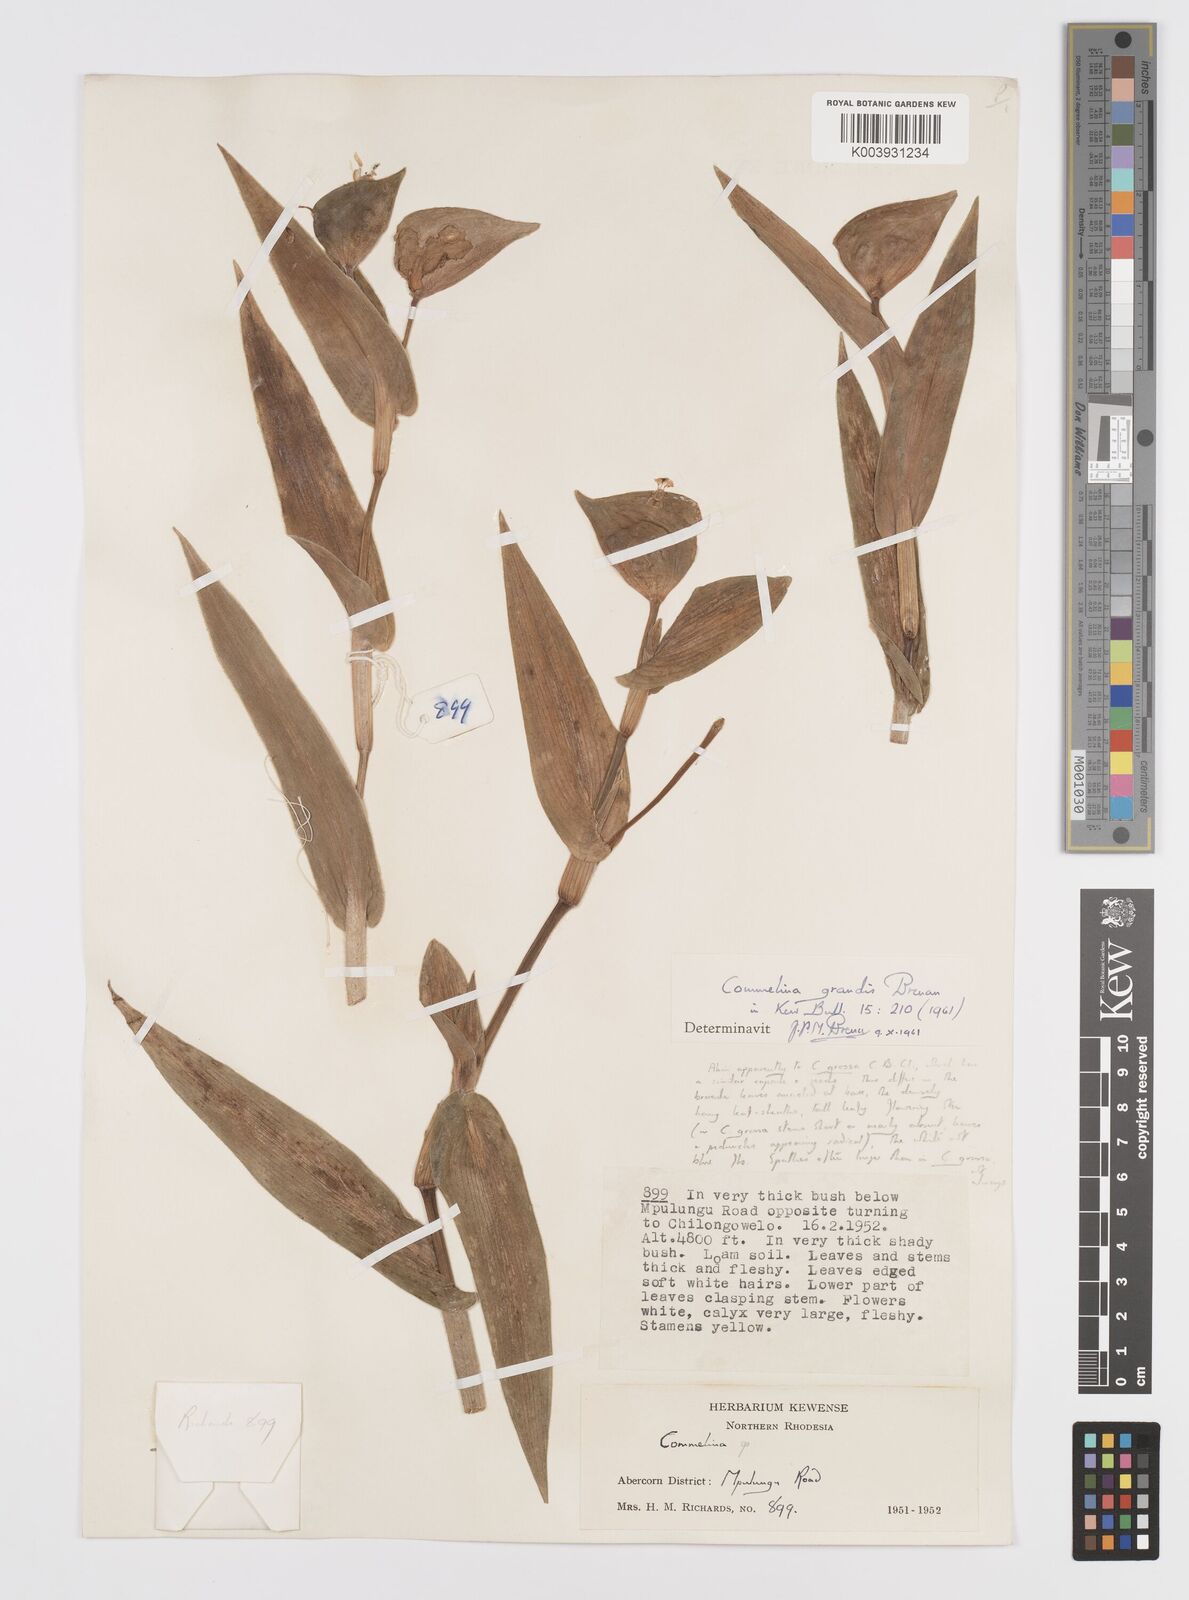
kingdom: Plantae
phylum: Tracheophyta
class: Liliopsida
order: Commelinales
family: Commelinaceae
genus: Commelina
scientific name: Commelina grandis
